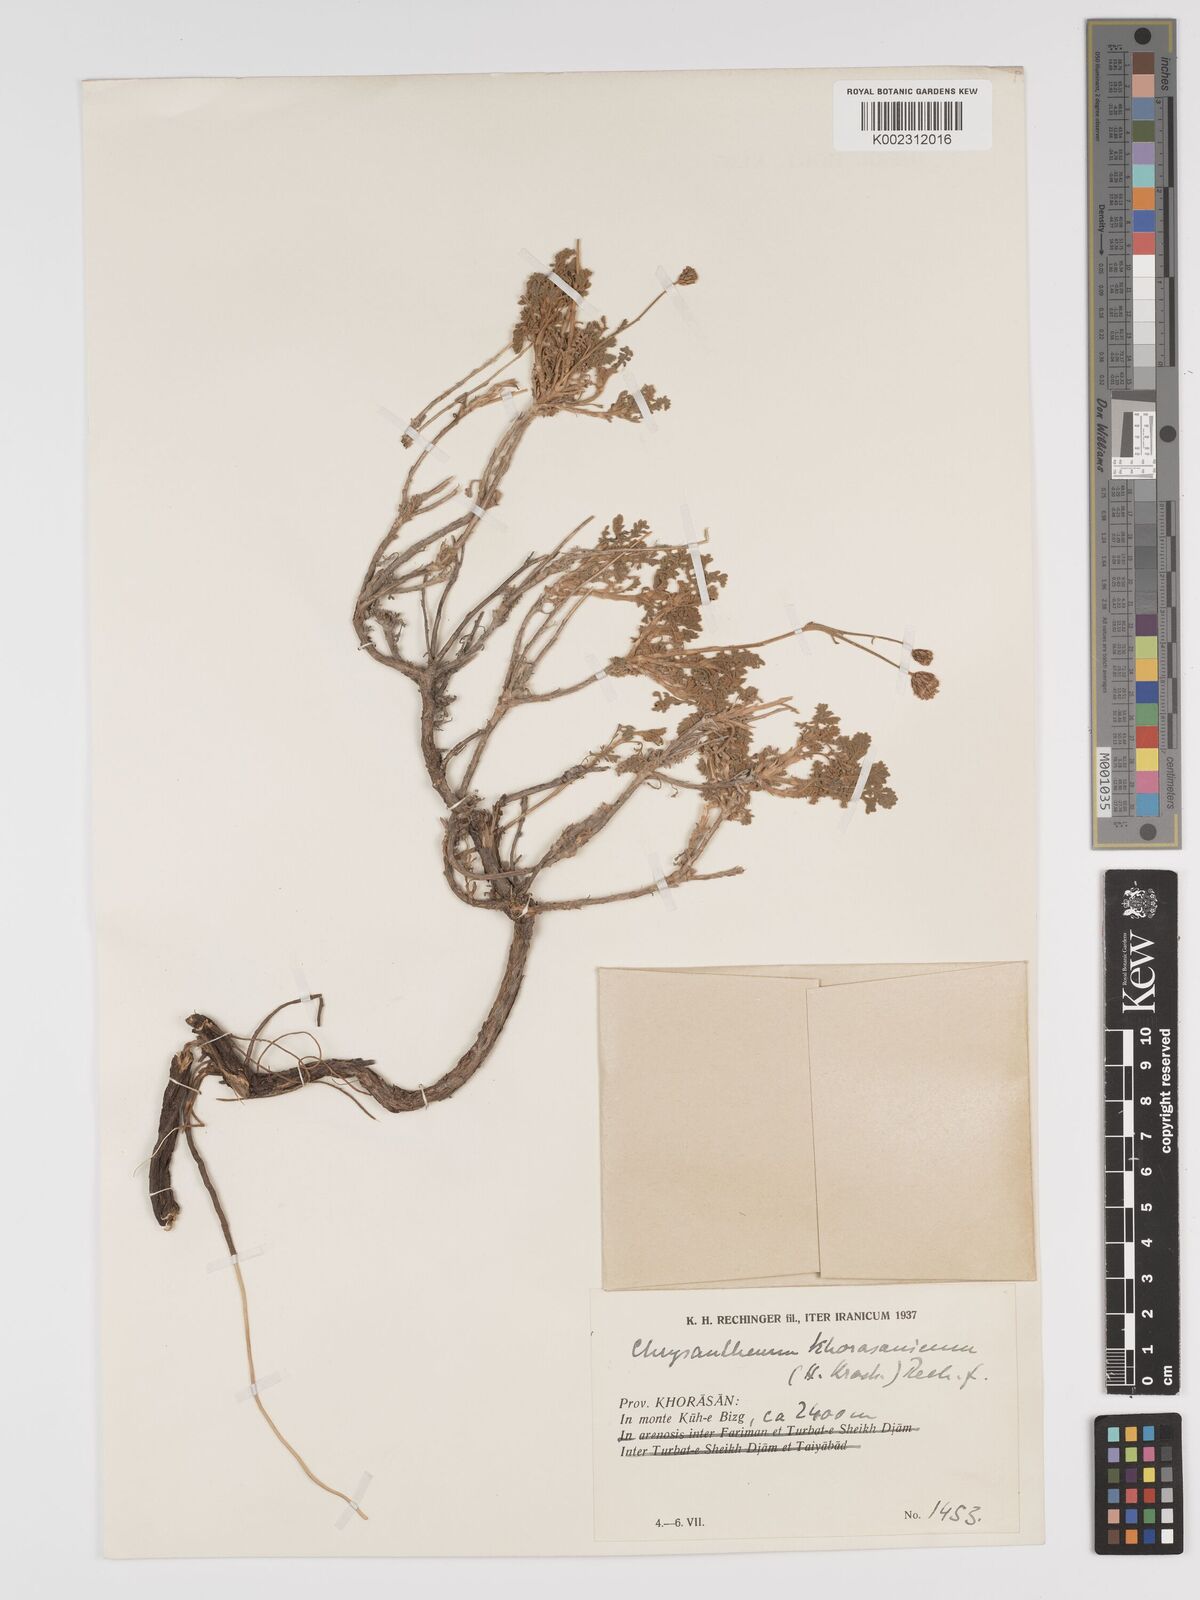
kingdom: Plantae
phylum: Tracheophyta
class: Magnoliopsida
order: Asterales
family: Asteraceae
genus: Tanacetum
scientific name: Tanacetum khorassanicum
